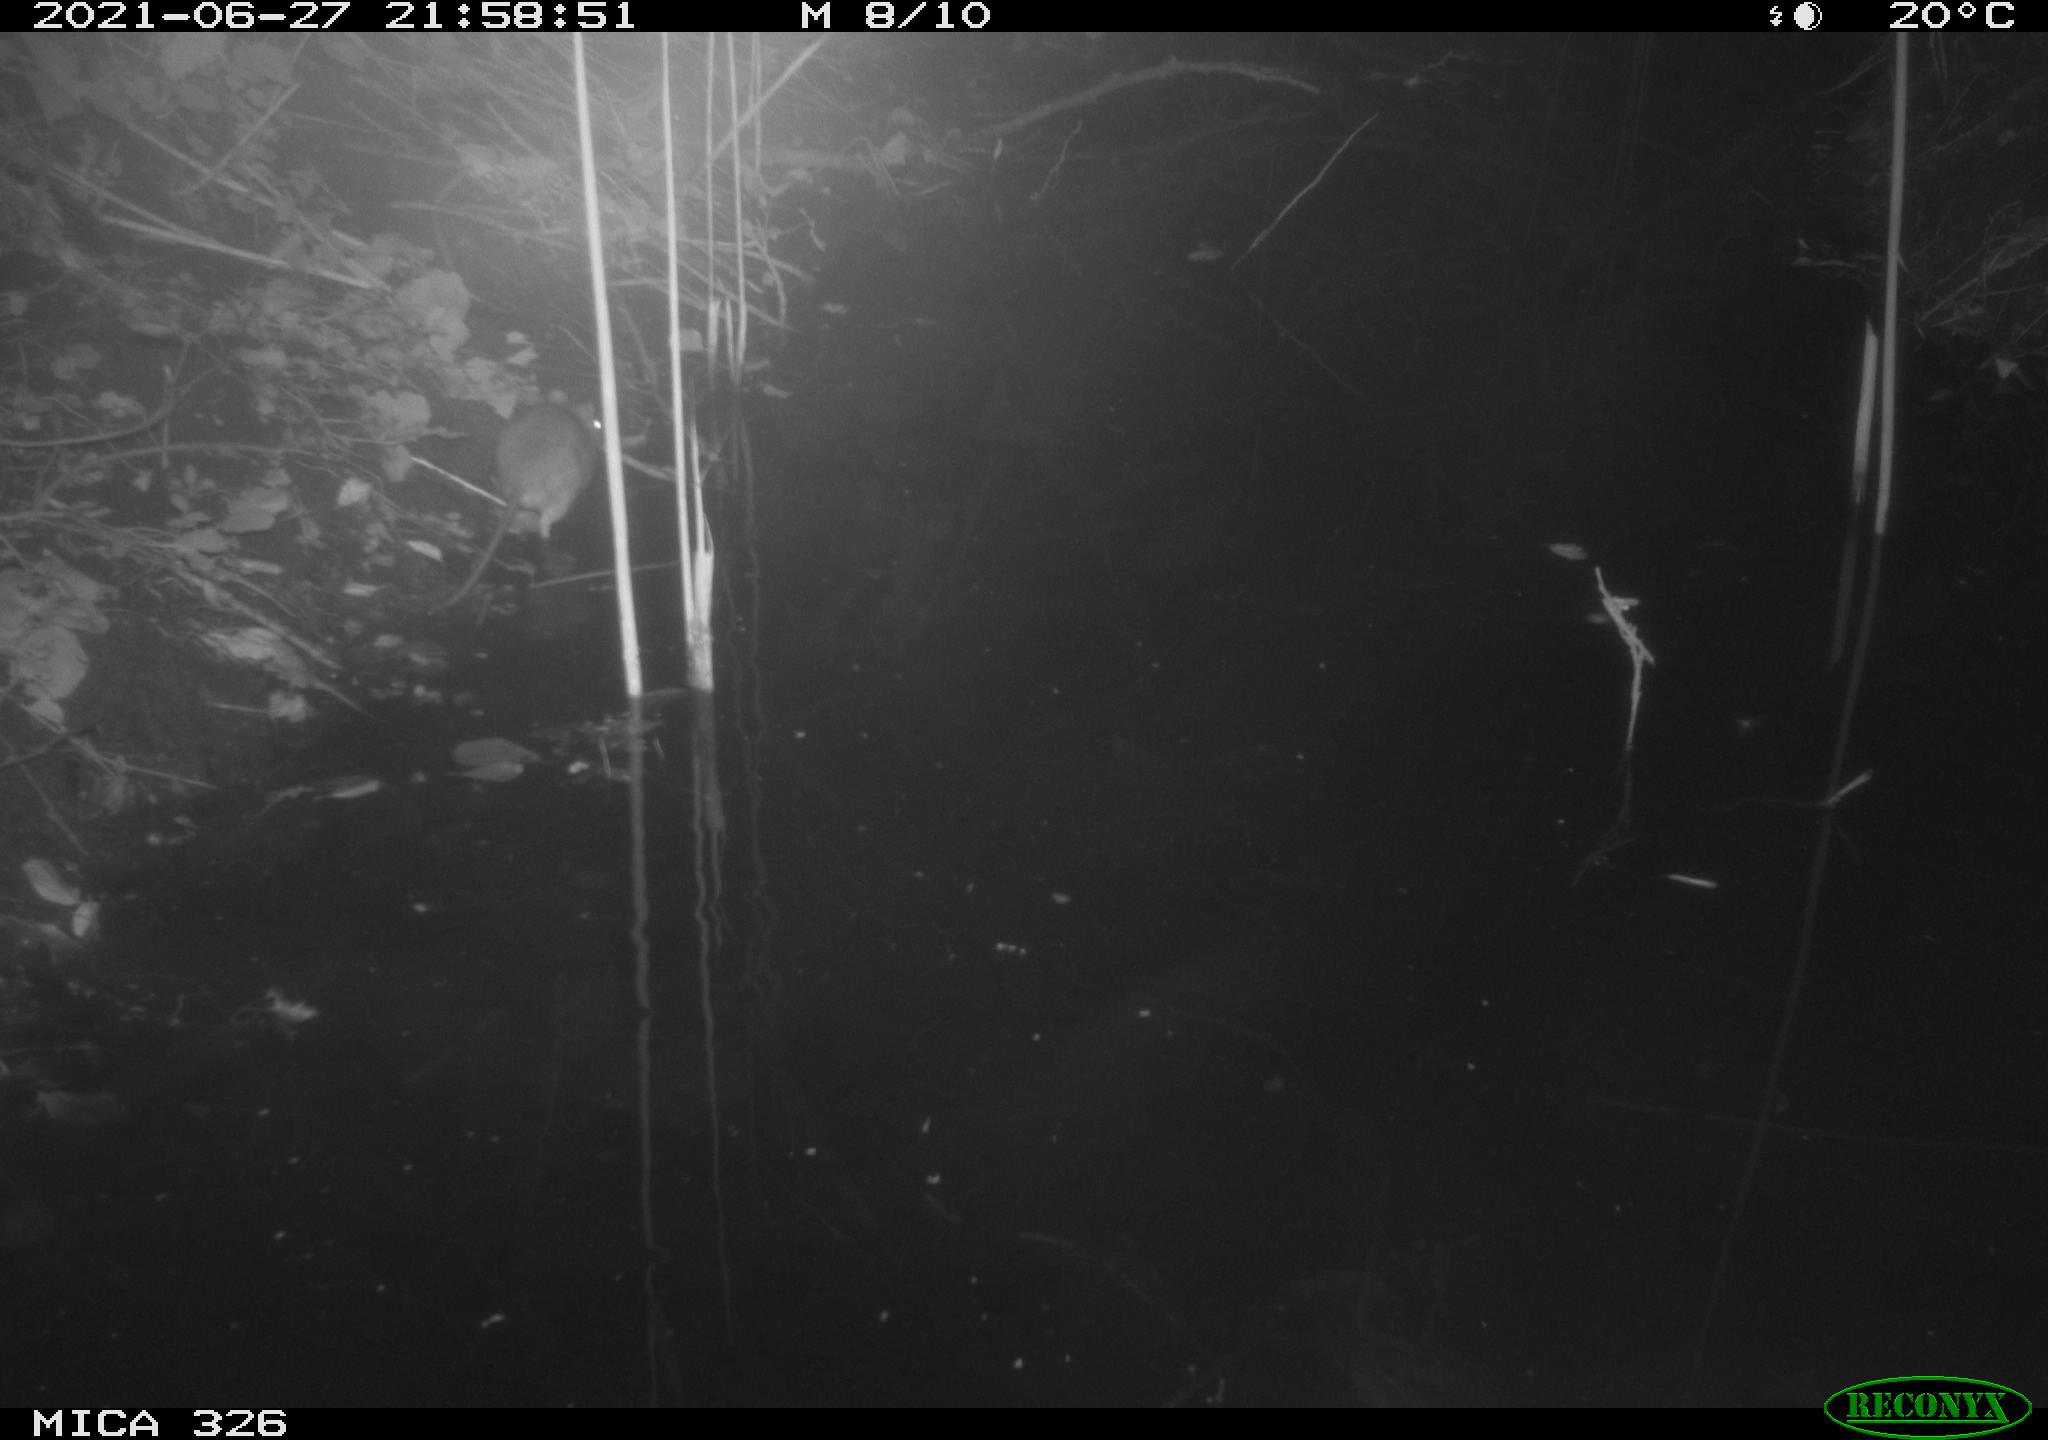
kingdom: Animalia
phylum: Chordata
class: Mammalia
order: Rodentia
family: Muridae
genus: Rattus
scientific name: Rattus norvegicus
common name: Brown rat
